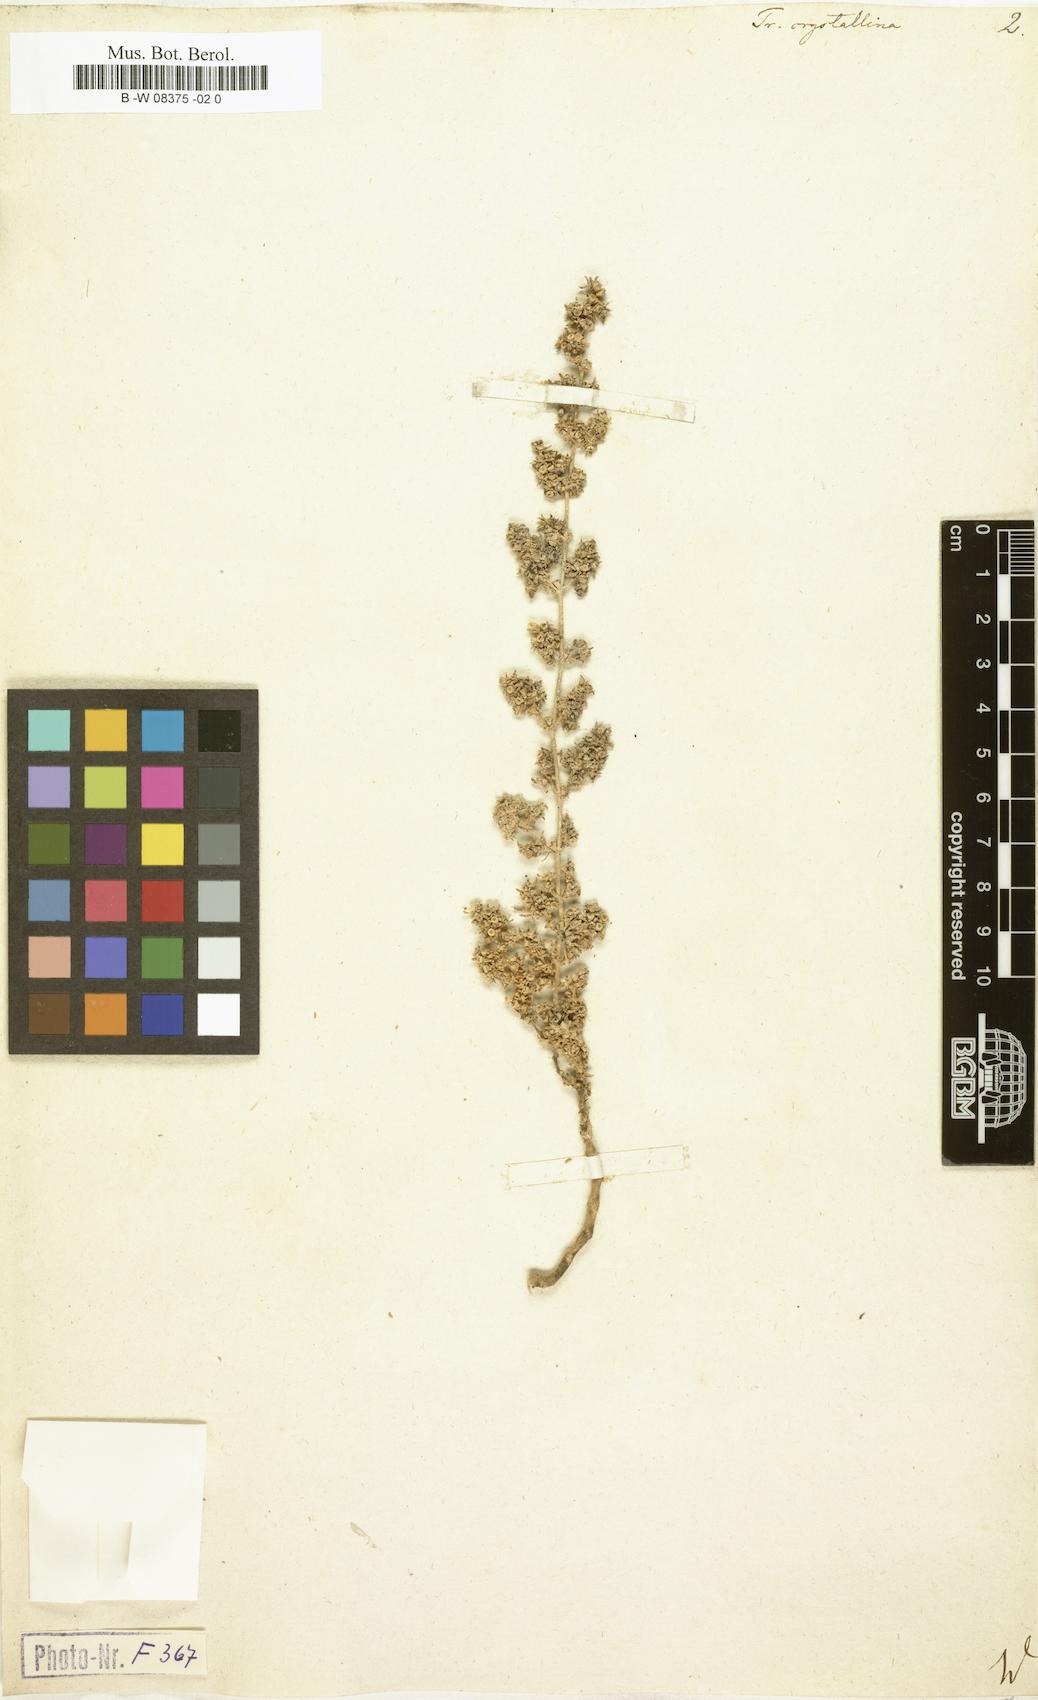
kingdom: Plantae
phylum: Tracheophyta
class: Magnoliopsida
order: Caryophyllales
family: Aizoaceae
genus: Trianthema
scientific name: Trianthema crystallinum
